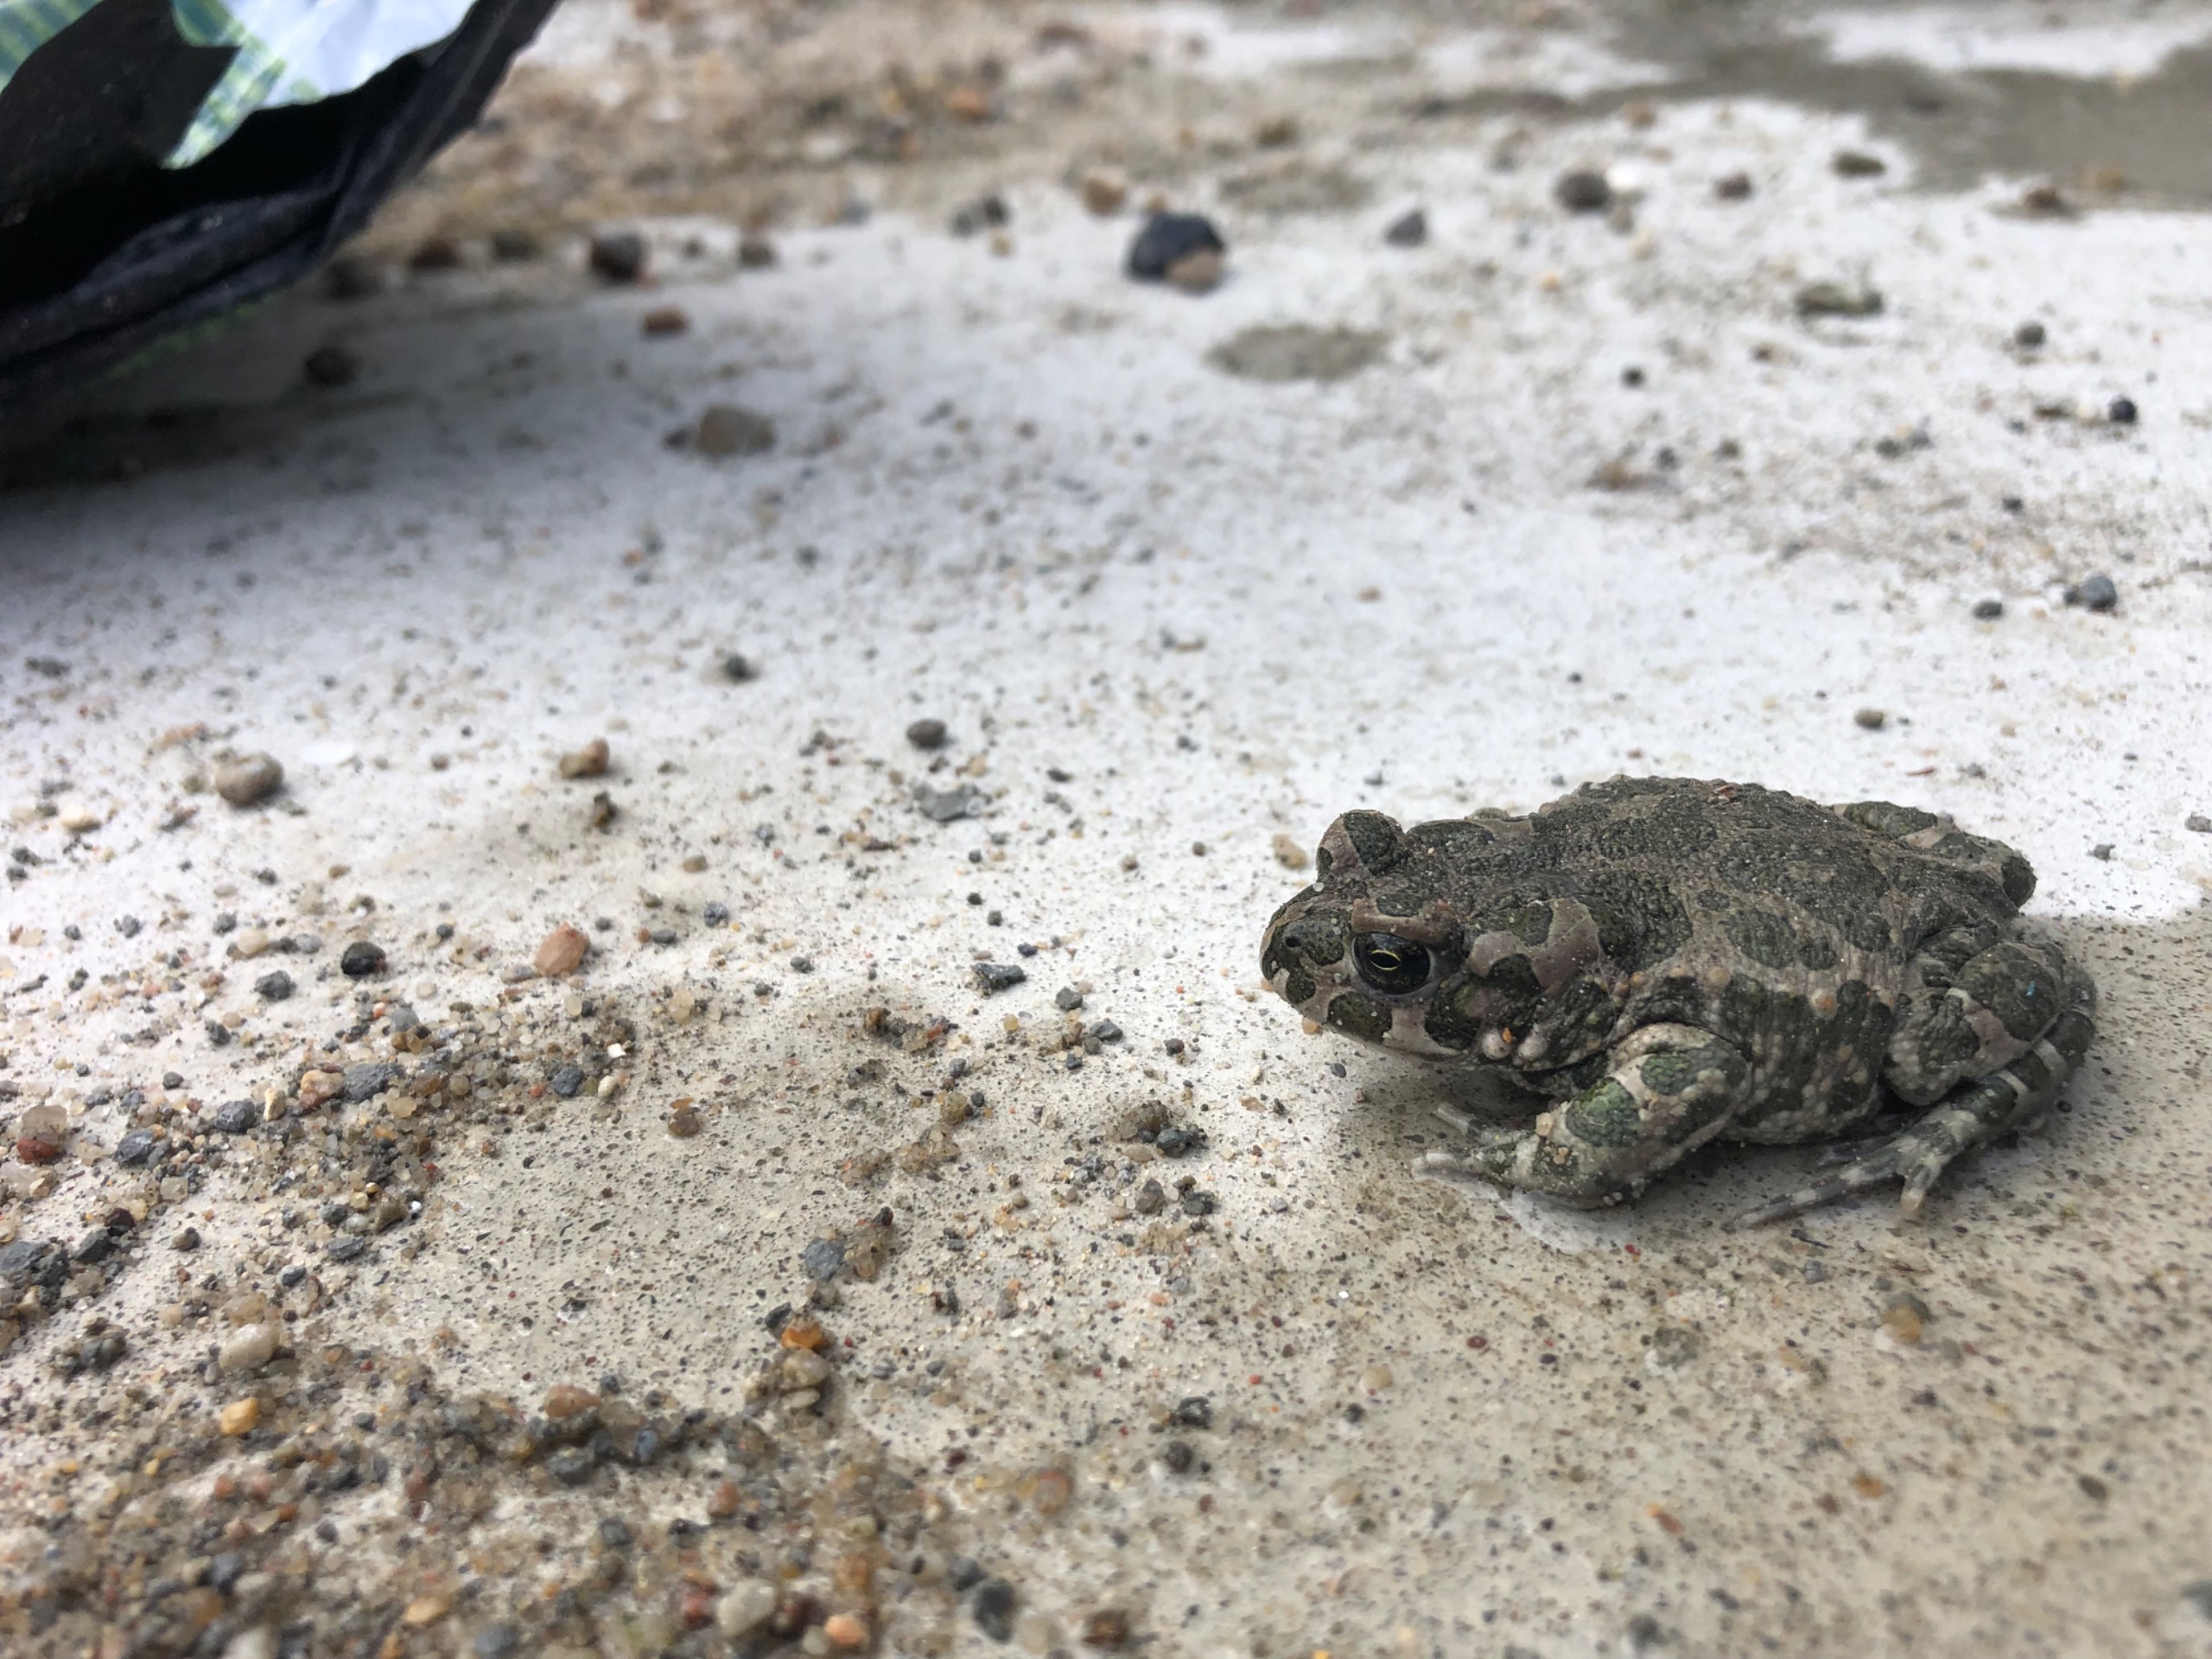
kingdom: Animalia
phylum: Chordata
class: Amphibia
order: Anura
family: Bufonidae
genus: Bufotes
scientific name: Bufotes viridis
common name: Grønbroget tudse
